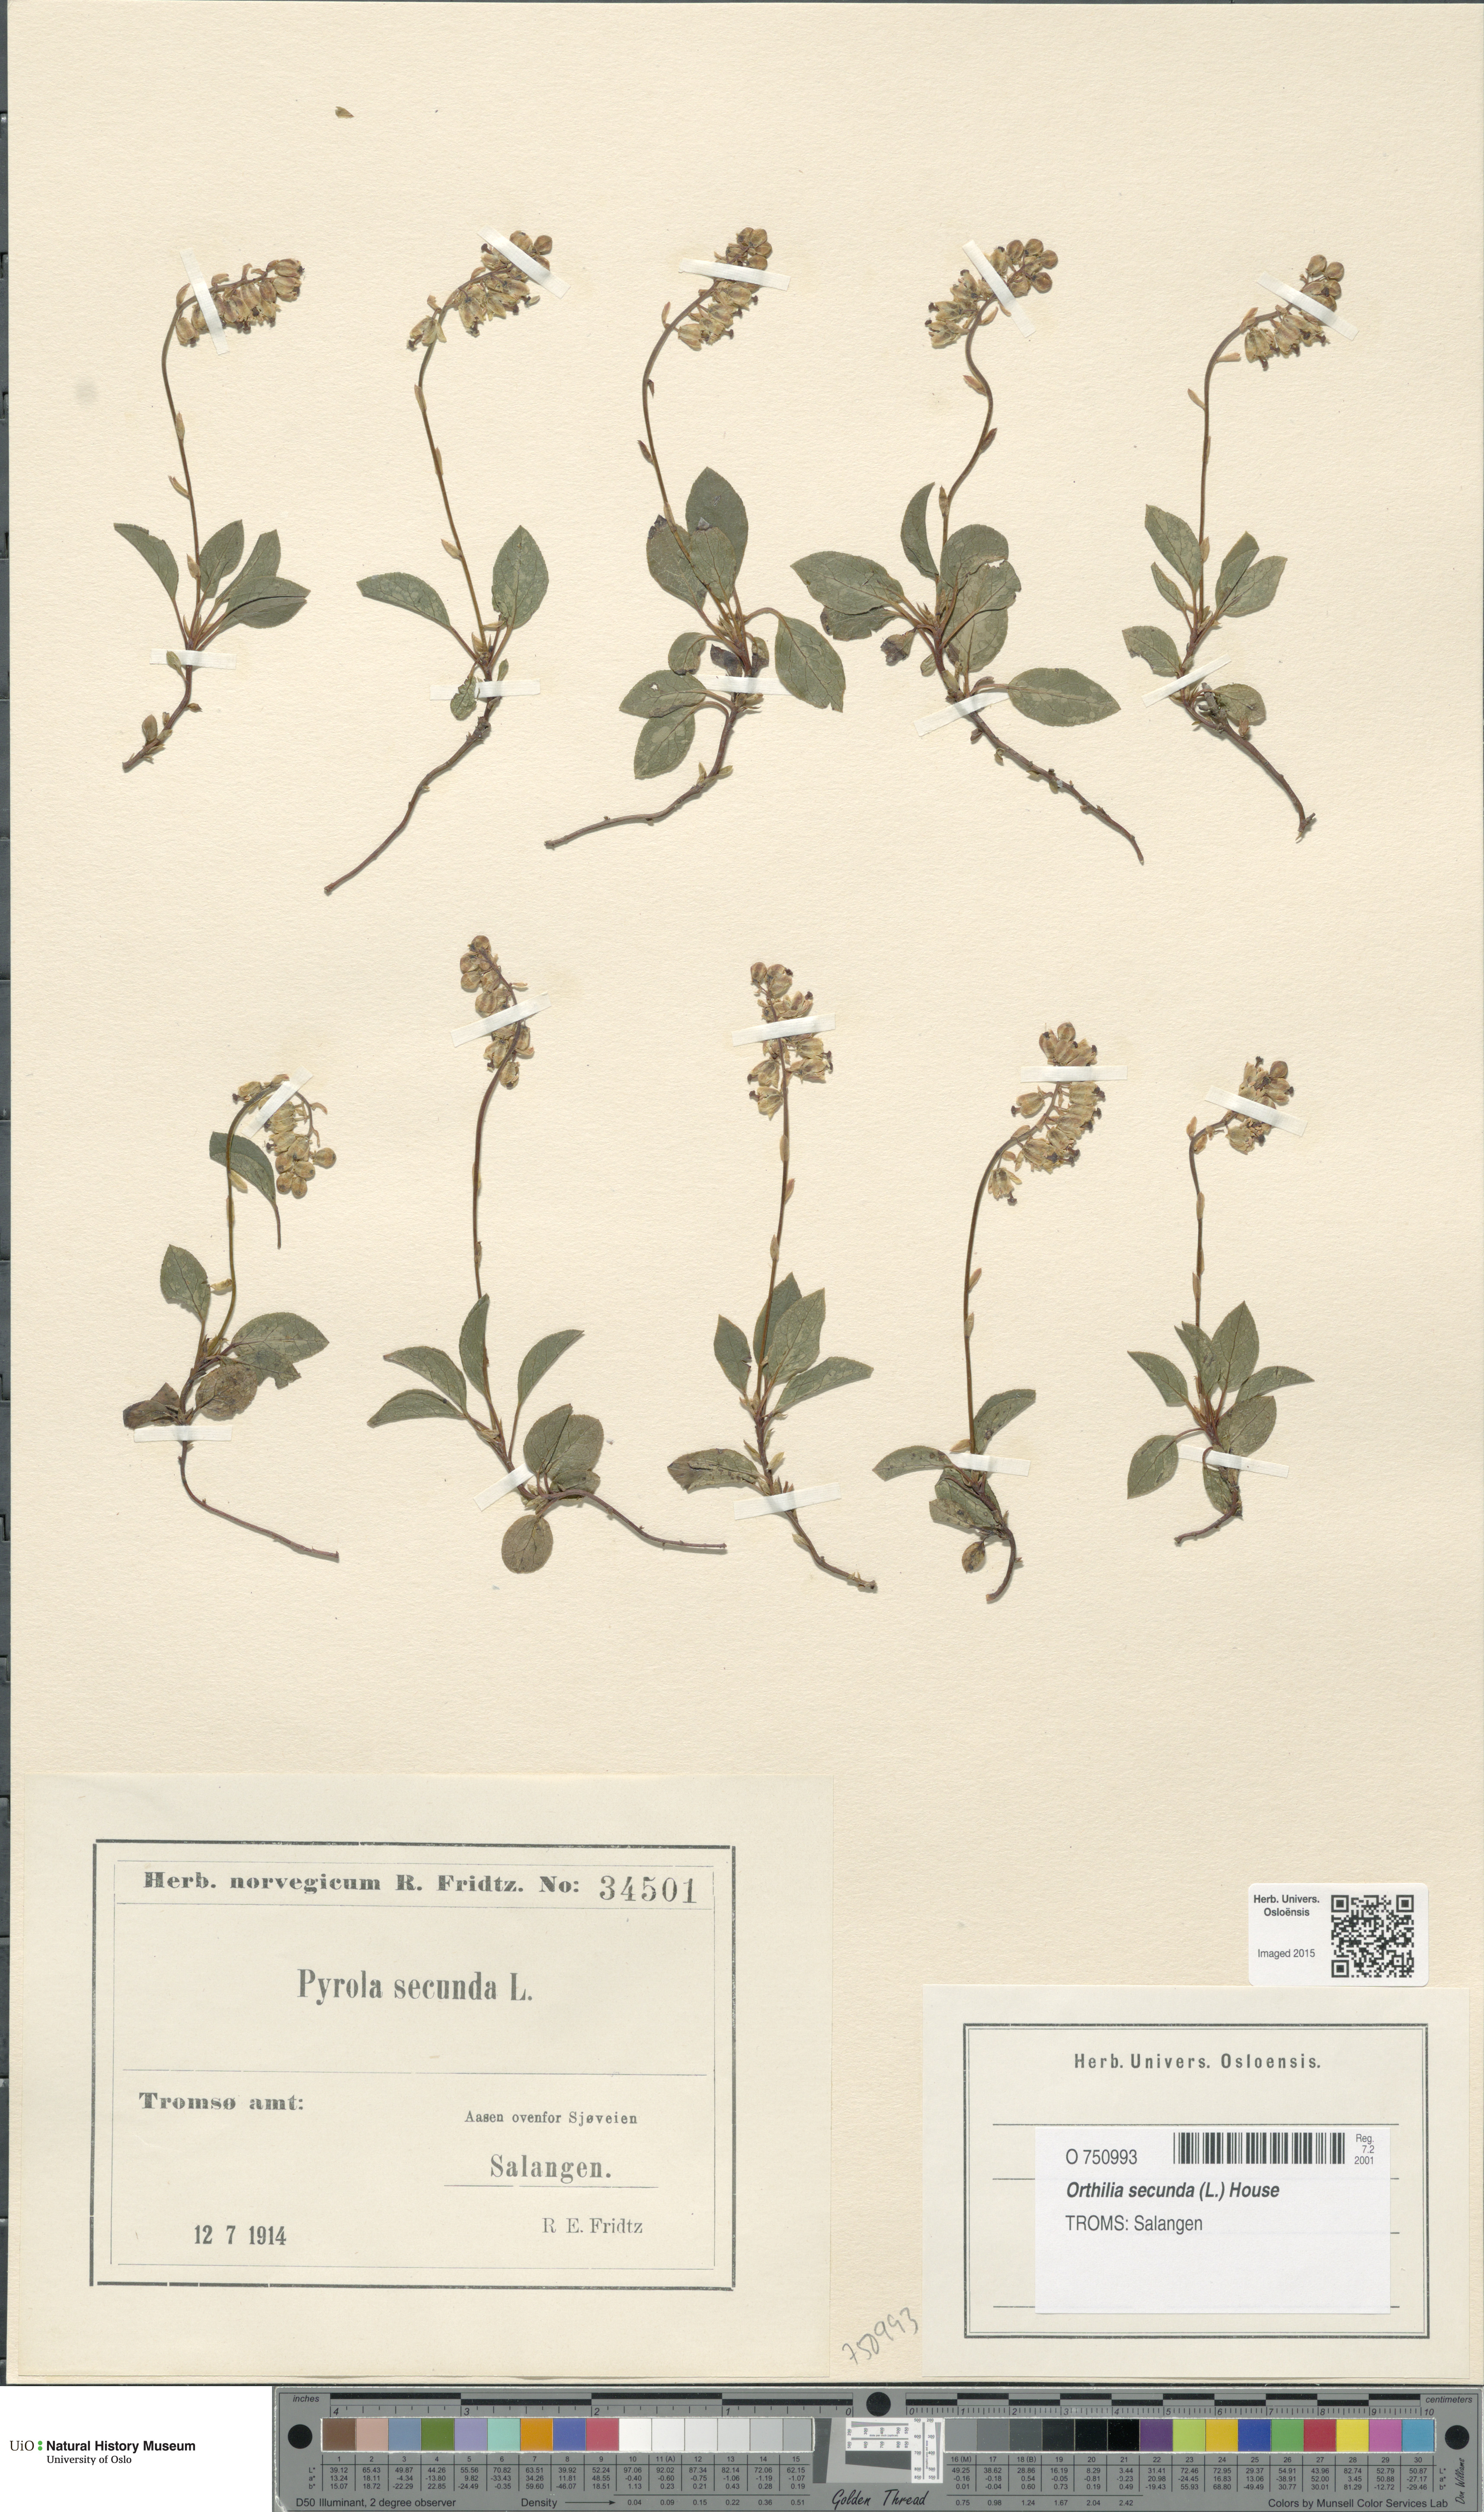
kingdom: Plantae
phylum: Tracheophyta
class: Magnoliopsida
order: Ericales
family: Ericaceae
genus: Orthilia
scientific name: Orthilia secunda
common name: One-sided orthilia
